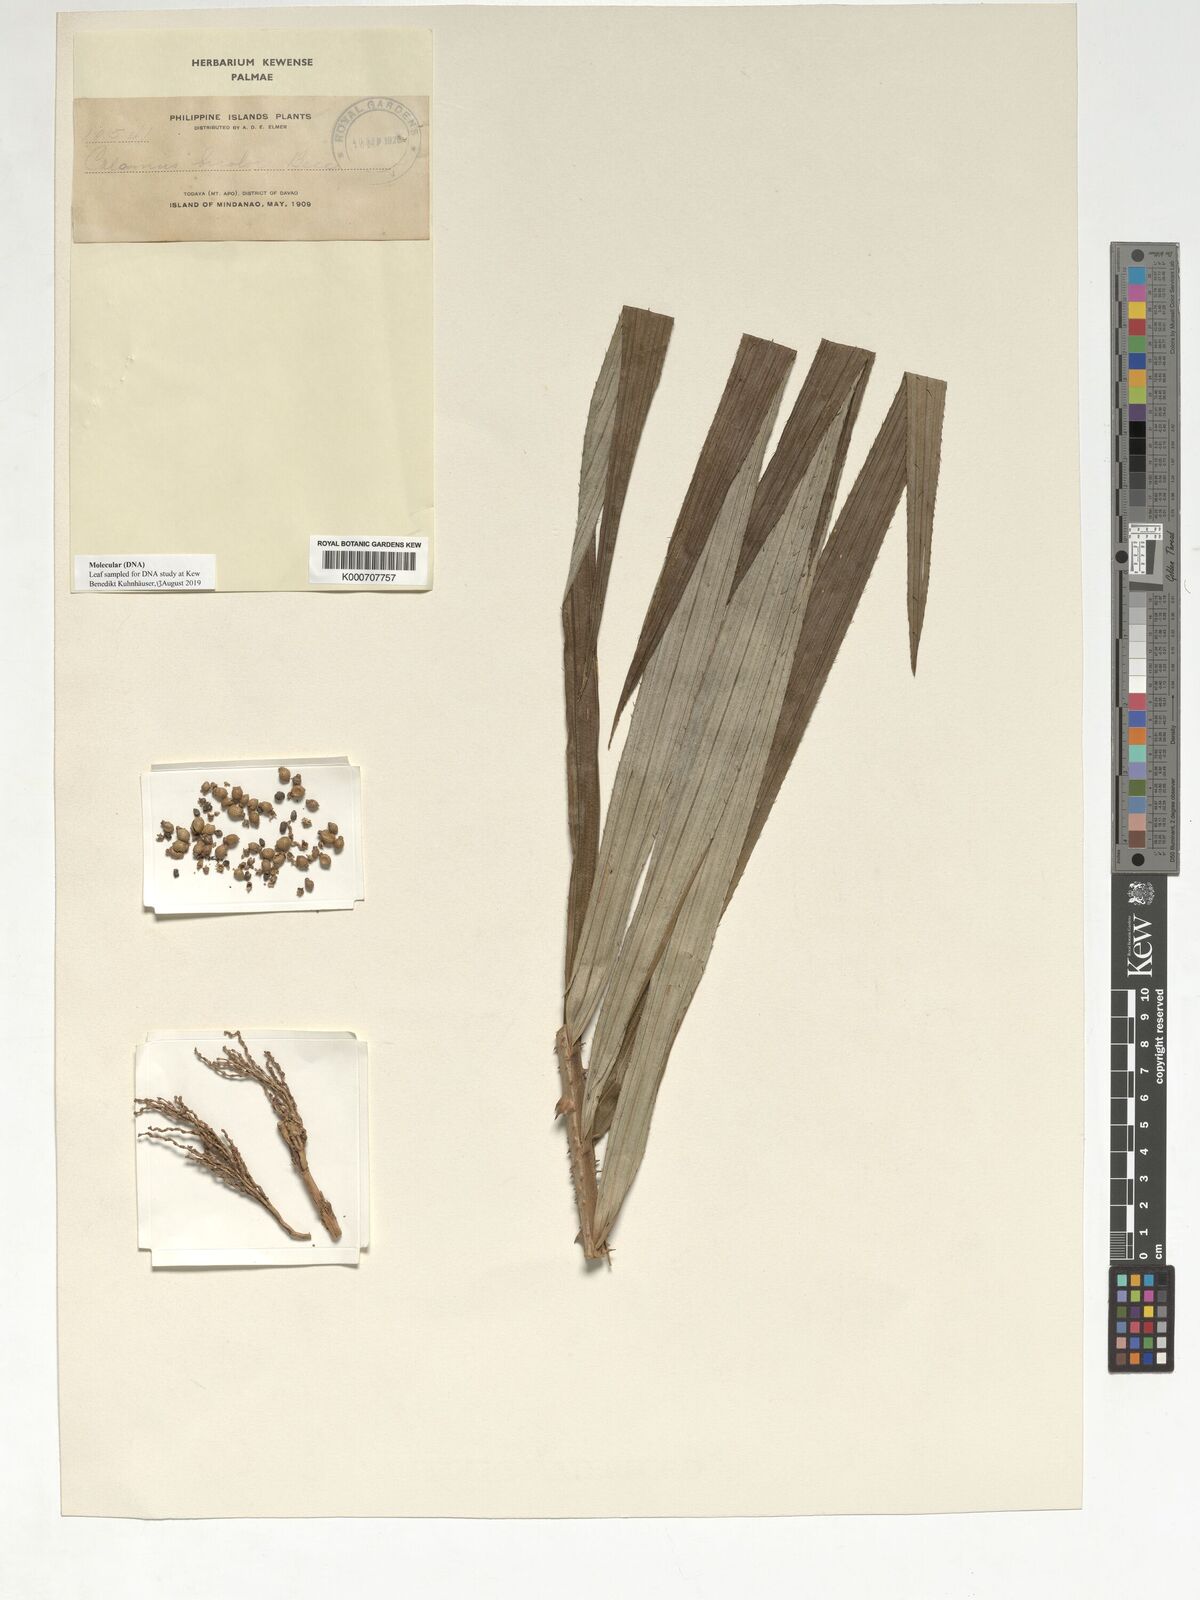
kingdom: Plantae
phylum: Tracheophyta
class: Liliopsida
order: Arecales
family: Arecaceae
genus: Calamus
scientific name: Calamus bicolor
